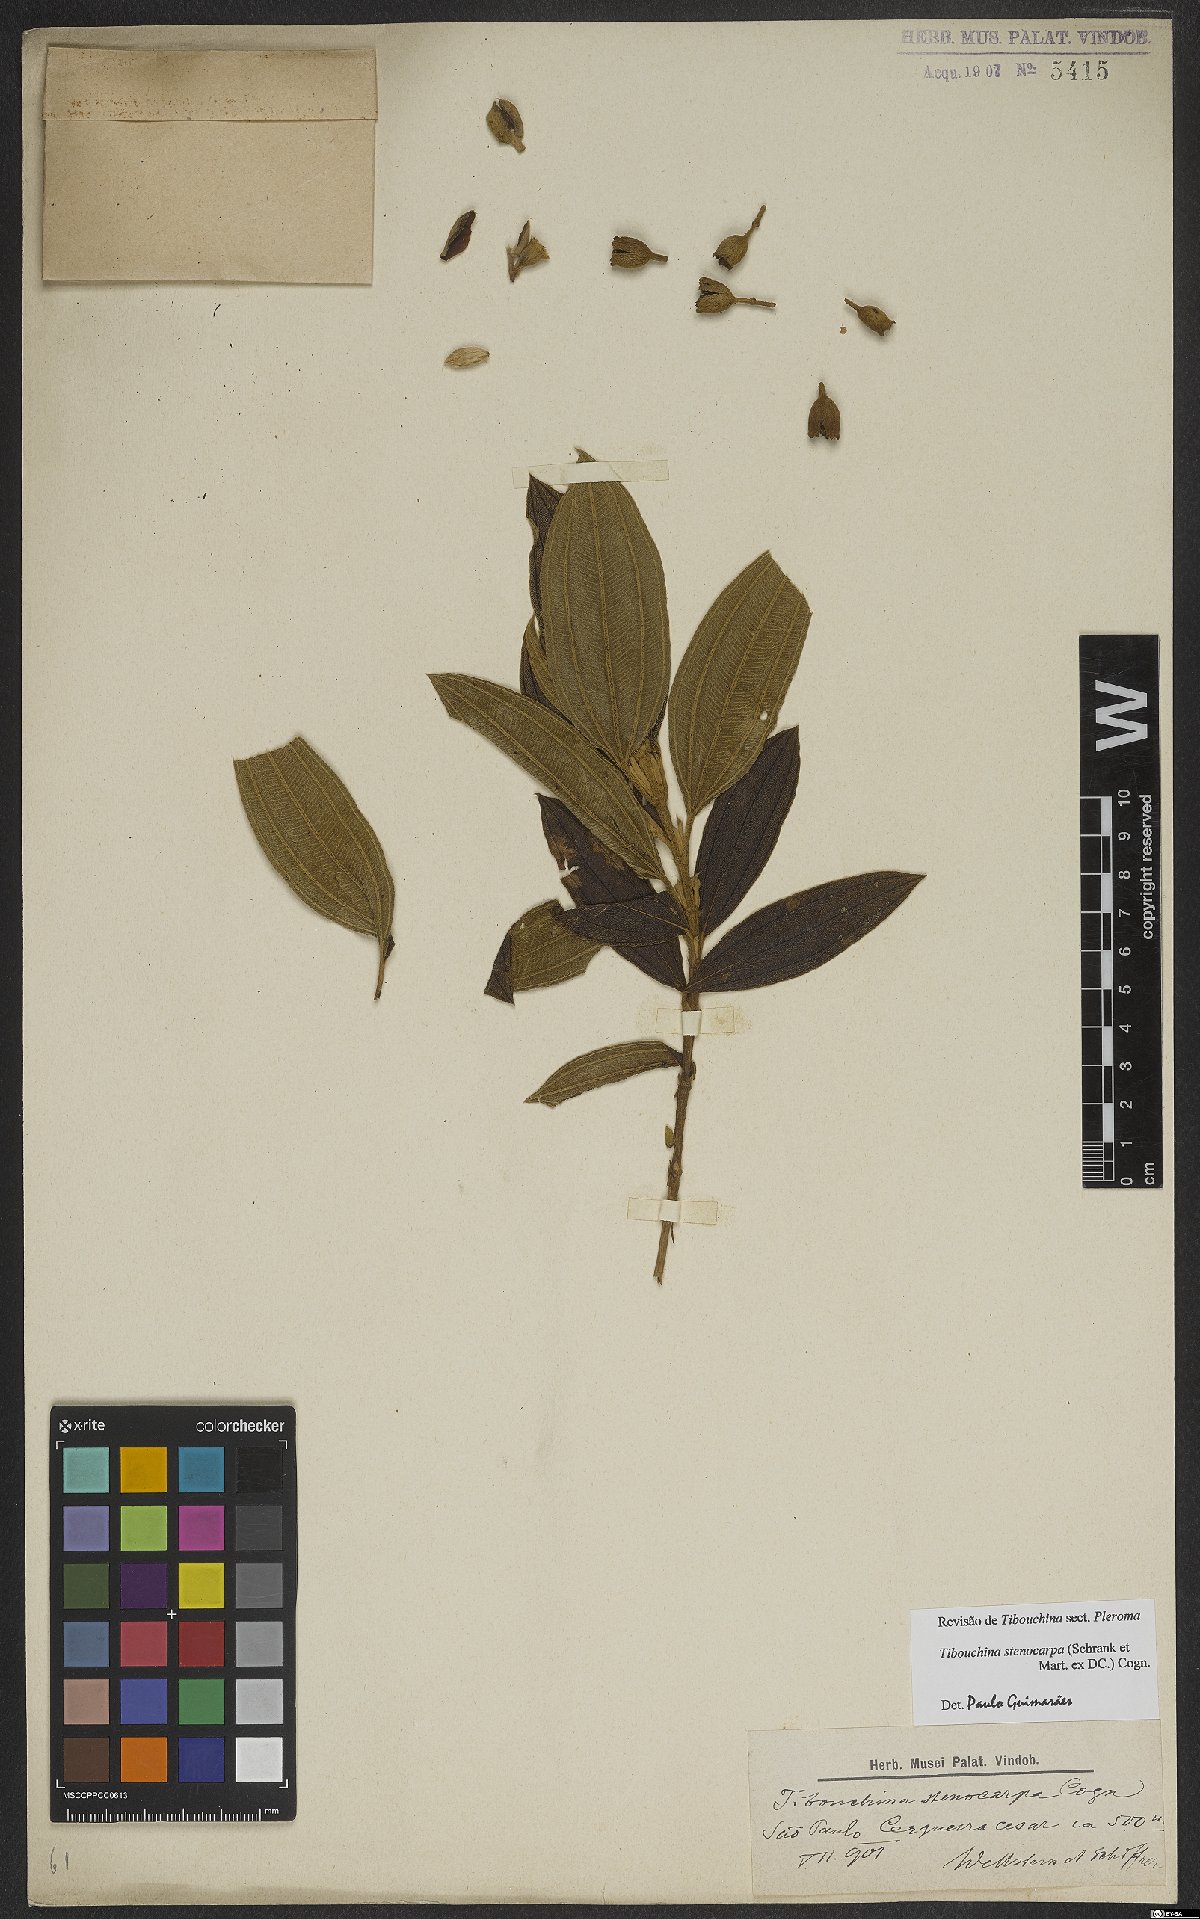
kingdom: Plantae
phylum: Tracheophyta
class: Magnoliopsida
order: Myrtales
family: Melastomataceae
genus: Pleroma
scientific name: Pleroma stenocarpum
